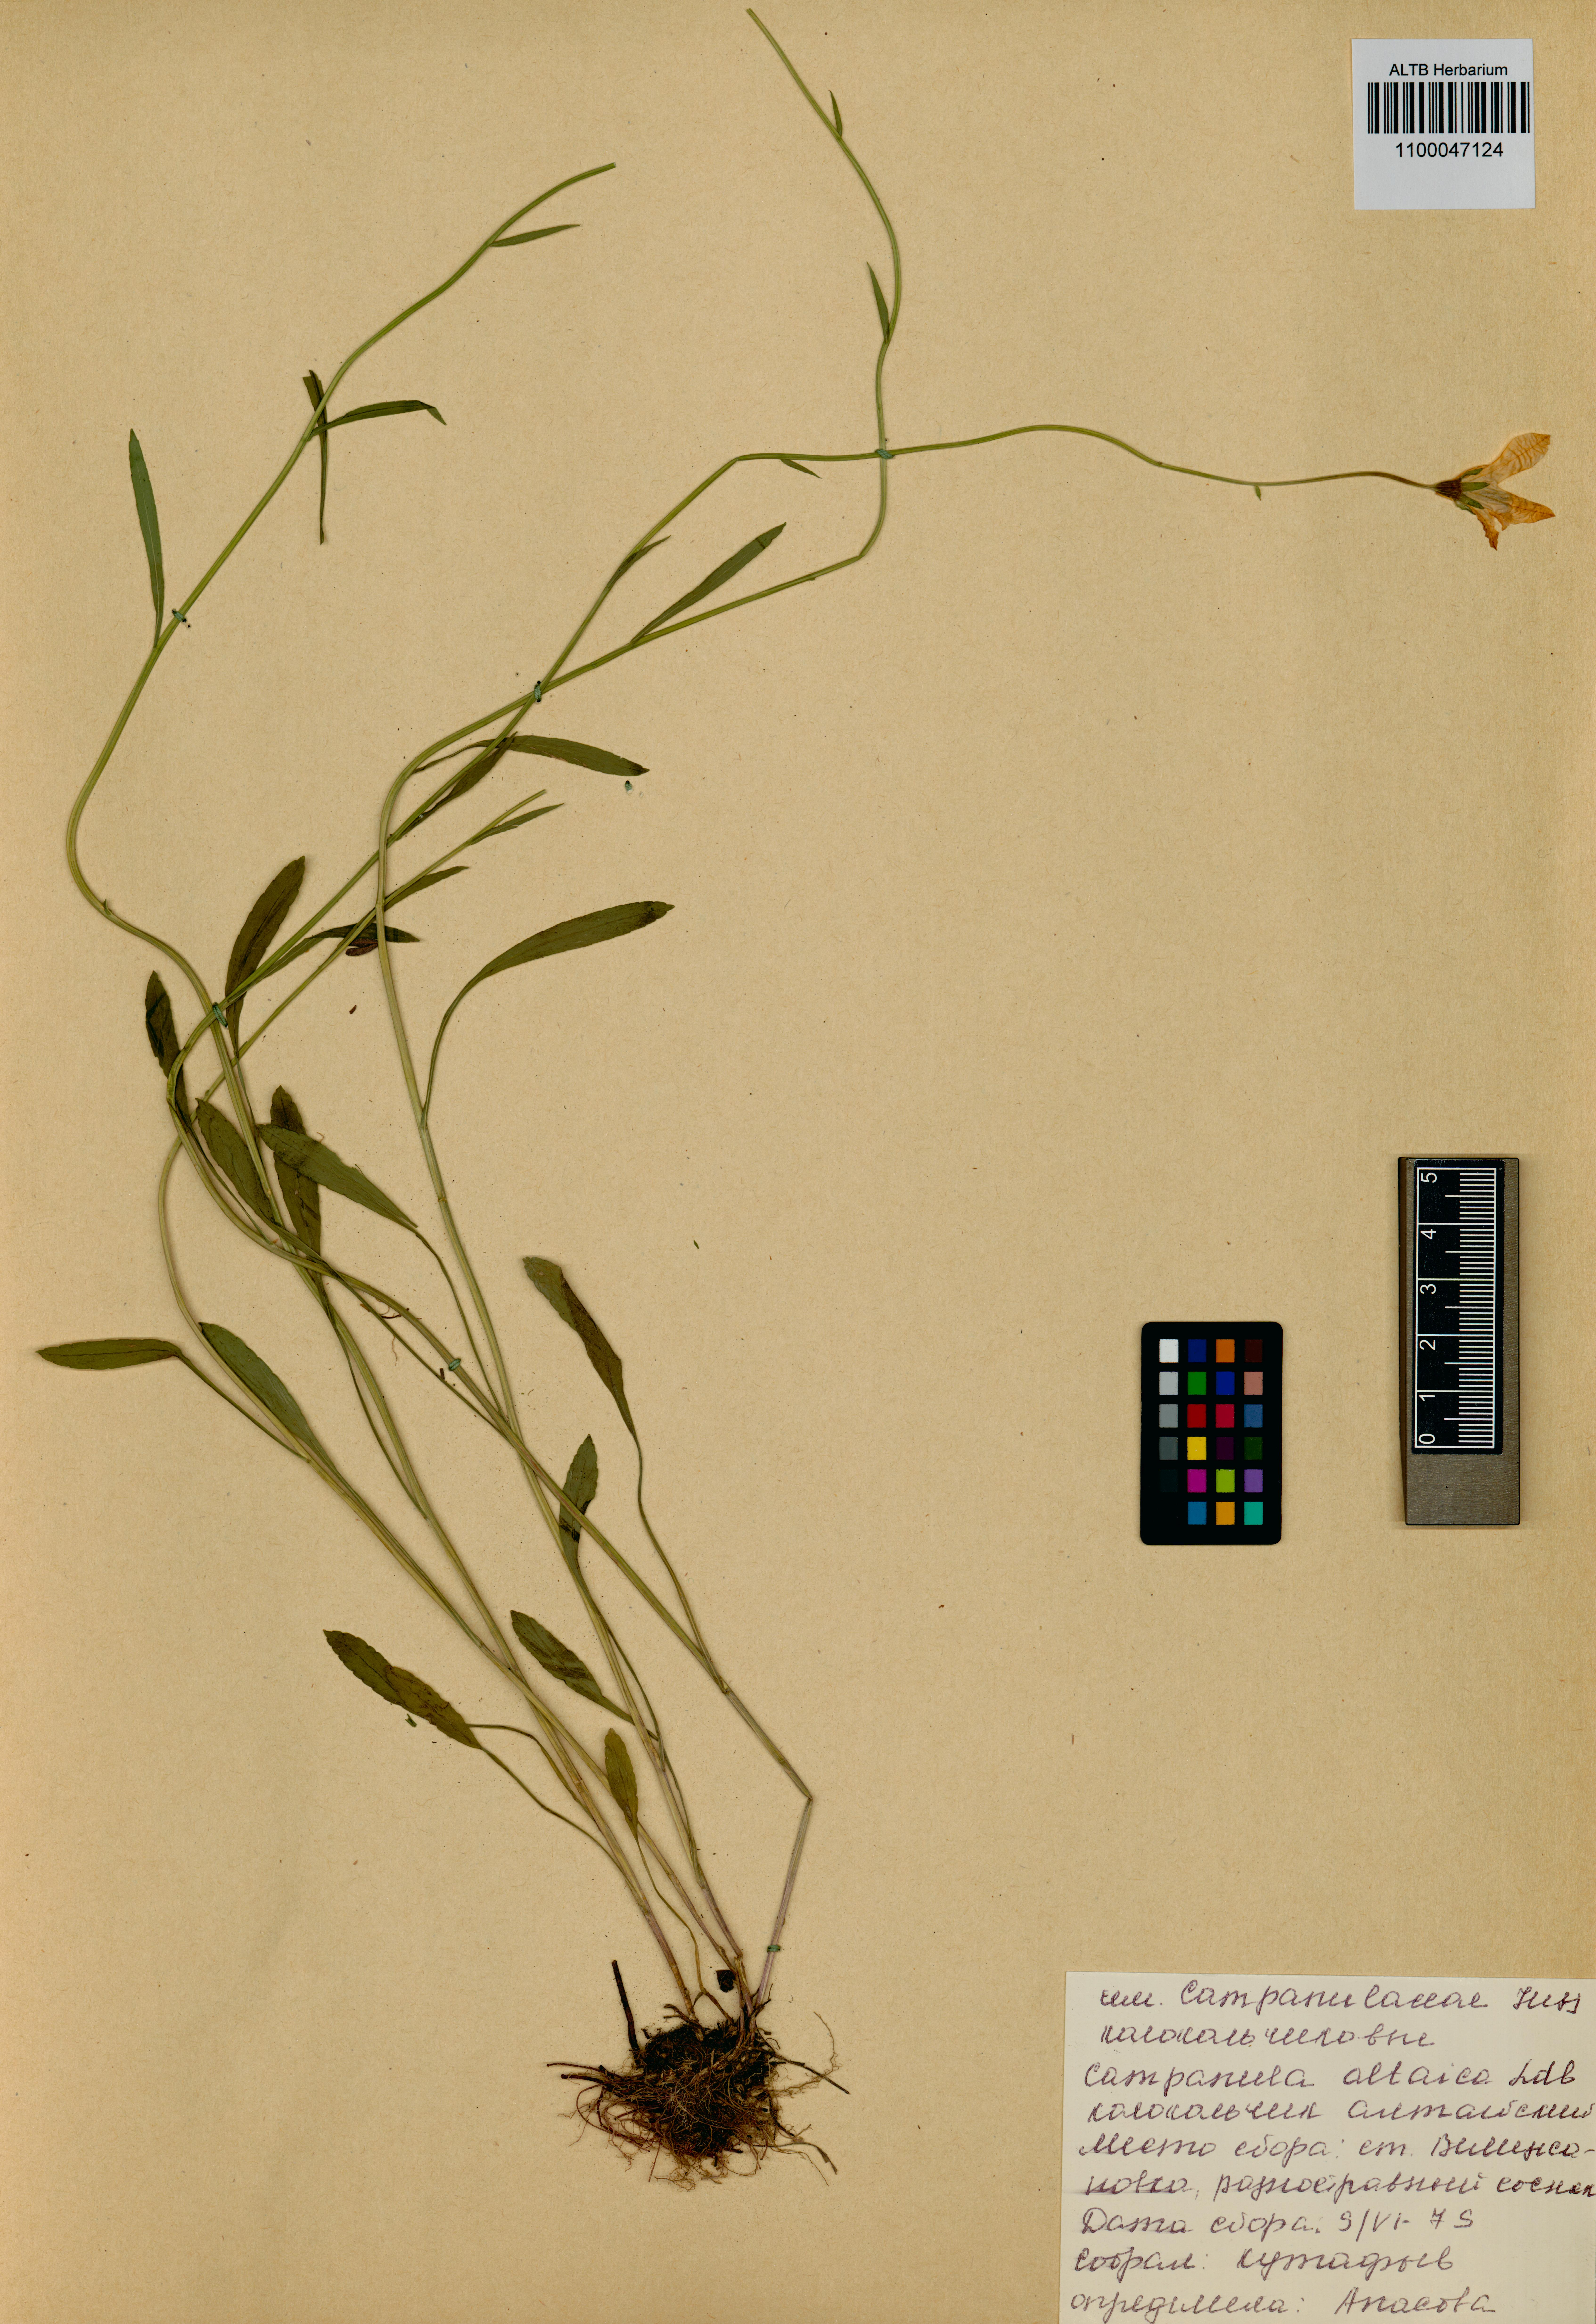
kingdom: Plantae
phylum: Tracheophyta
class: Magnoliopsida
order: Asterales
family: Campanulaceae
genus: Campanula
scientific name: Campanula stevenii
